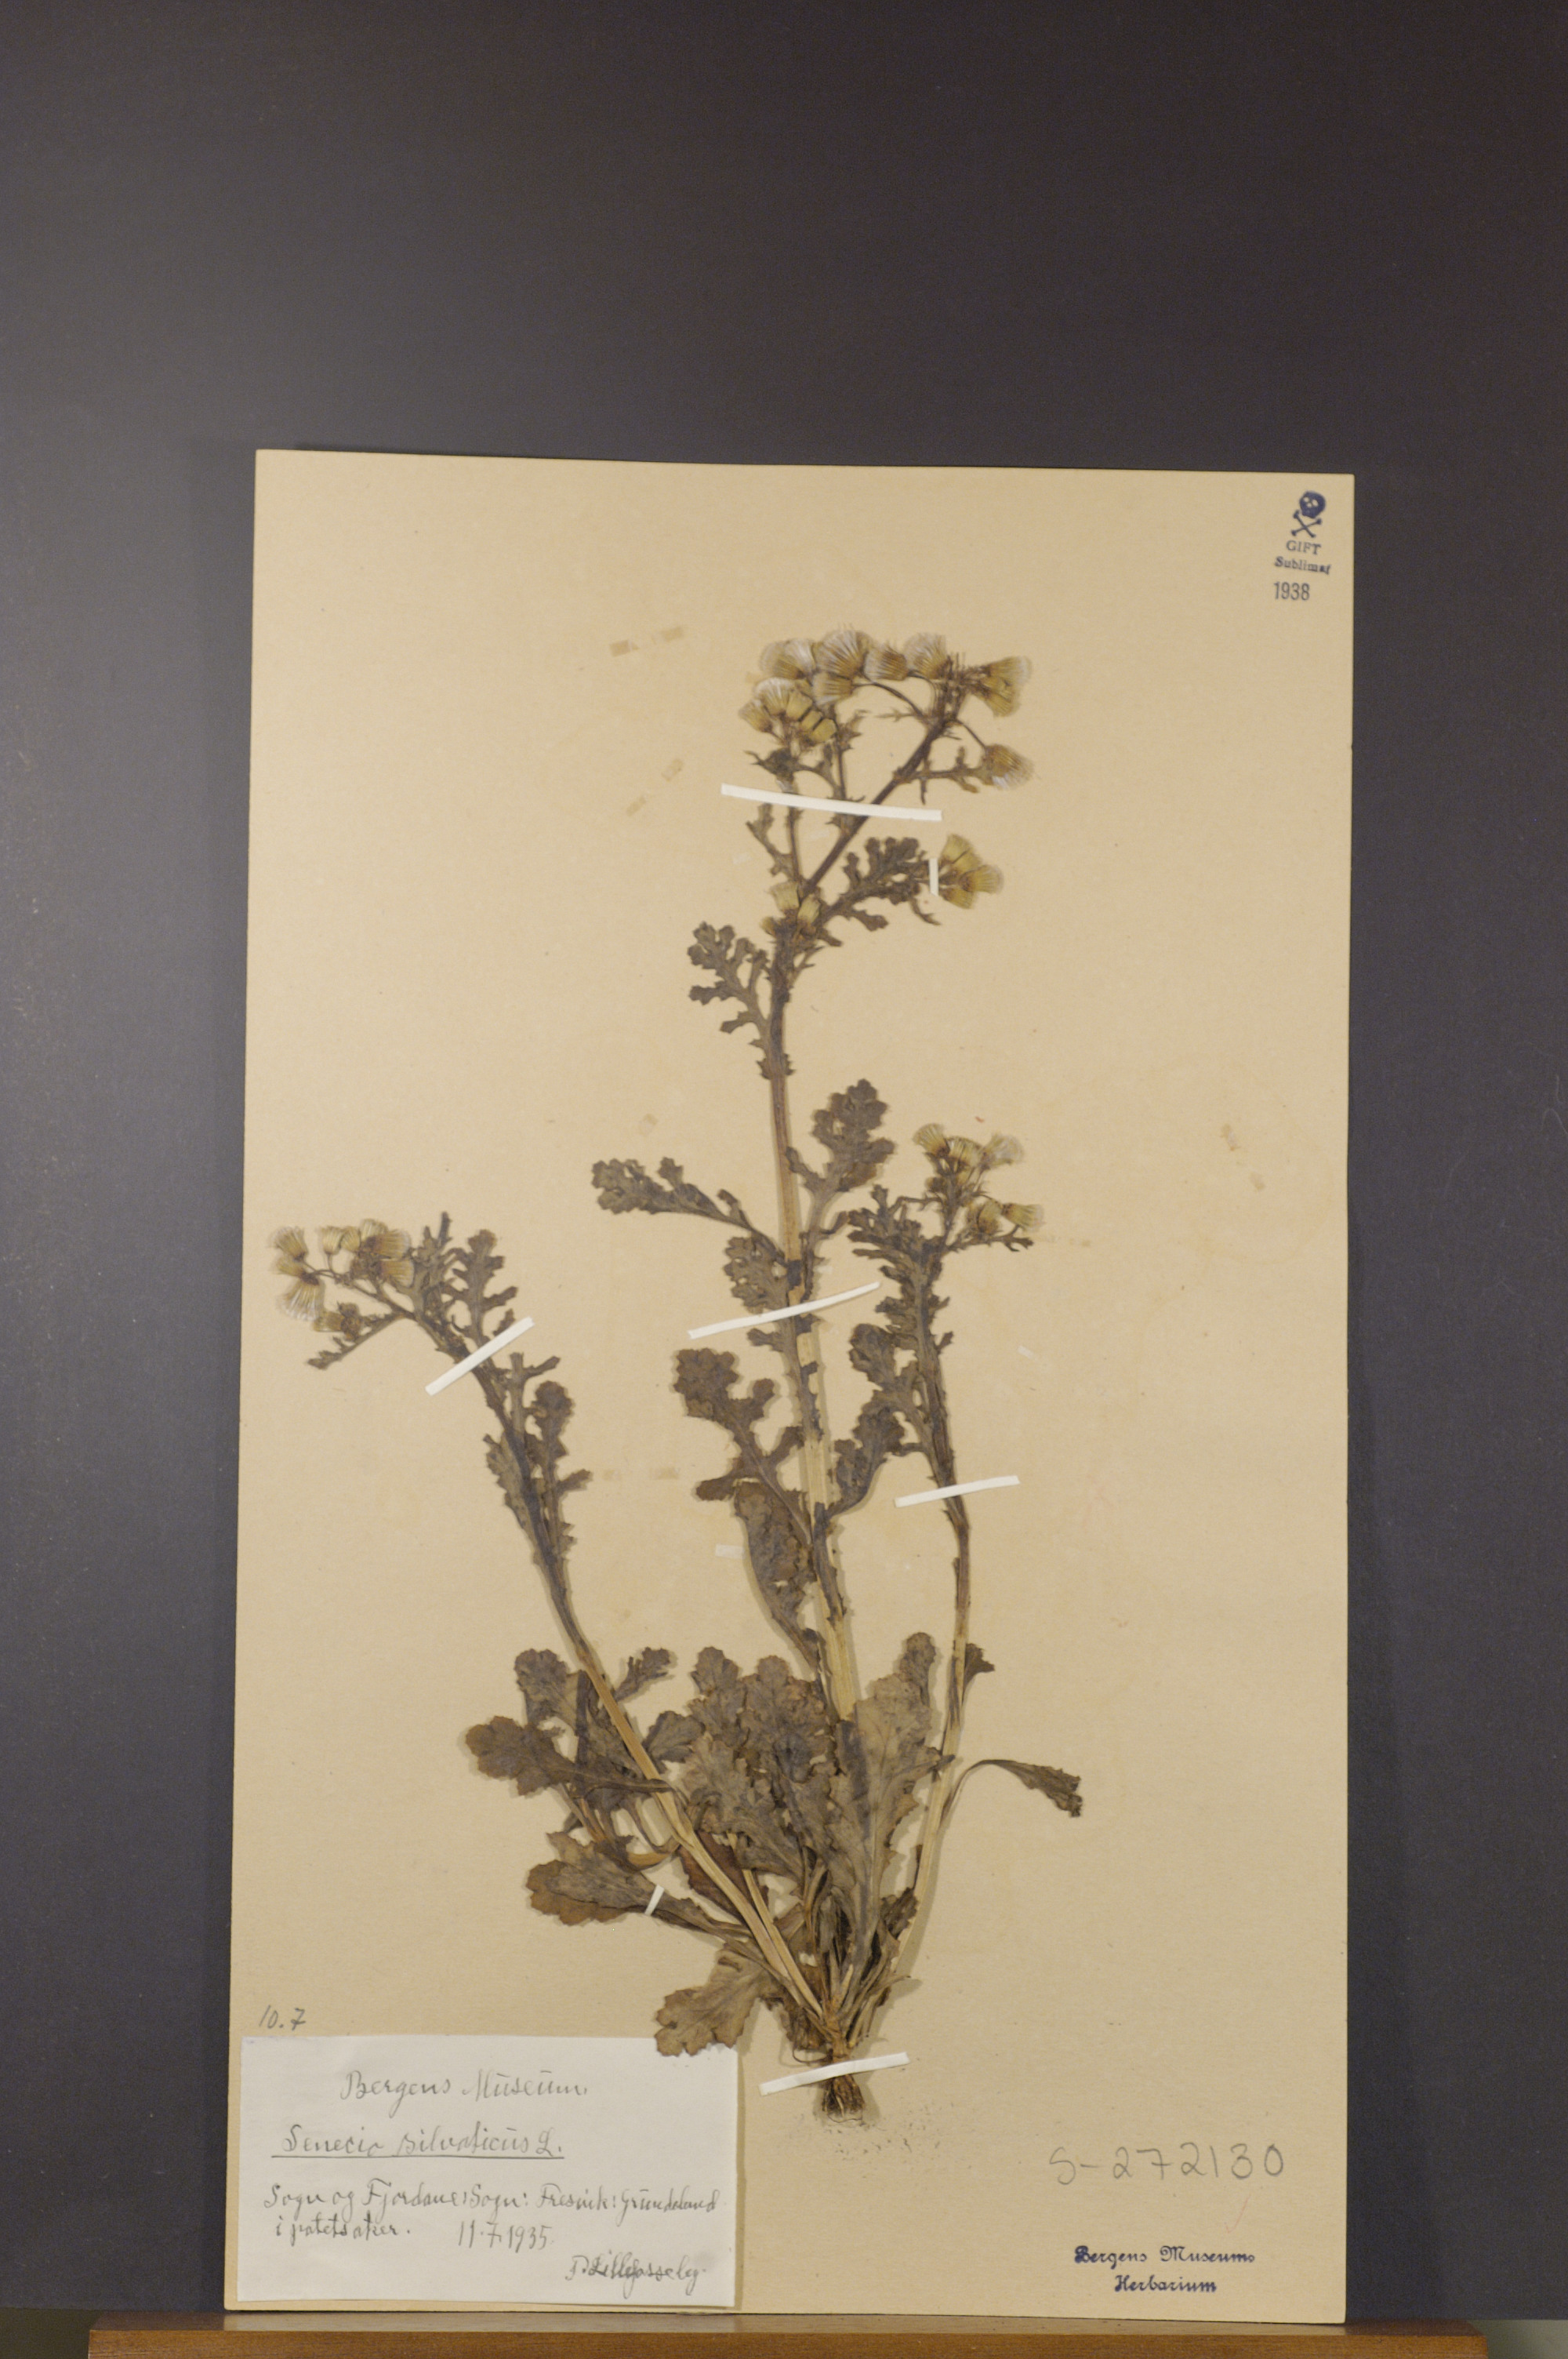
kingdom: Plantae
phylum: Tracheophyta
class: Magnoliopsida
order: Asterales
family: Asteraceae
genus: Senecio
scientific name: Senecio sylvaticus
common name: Woodland ragwort
